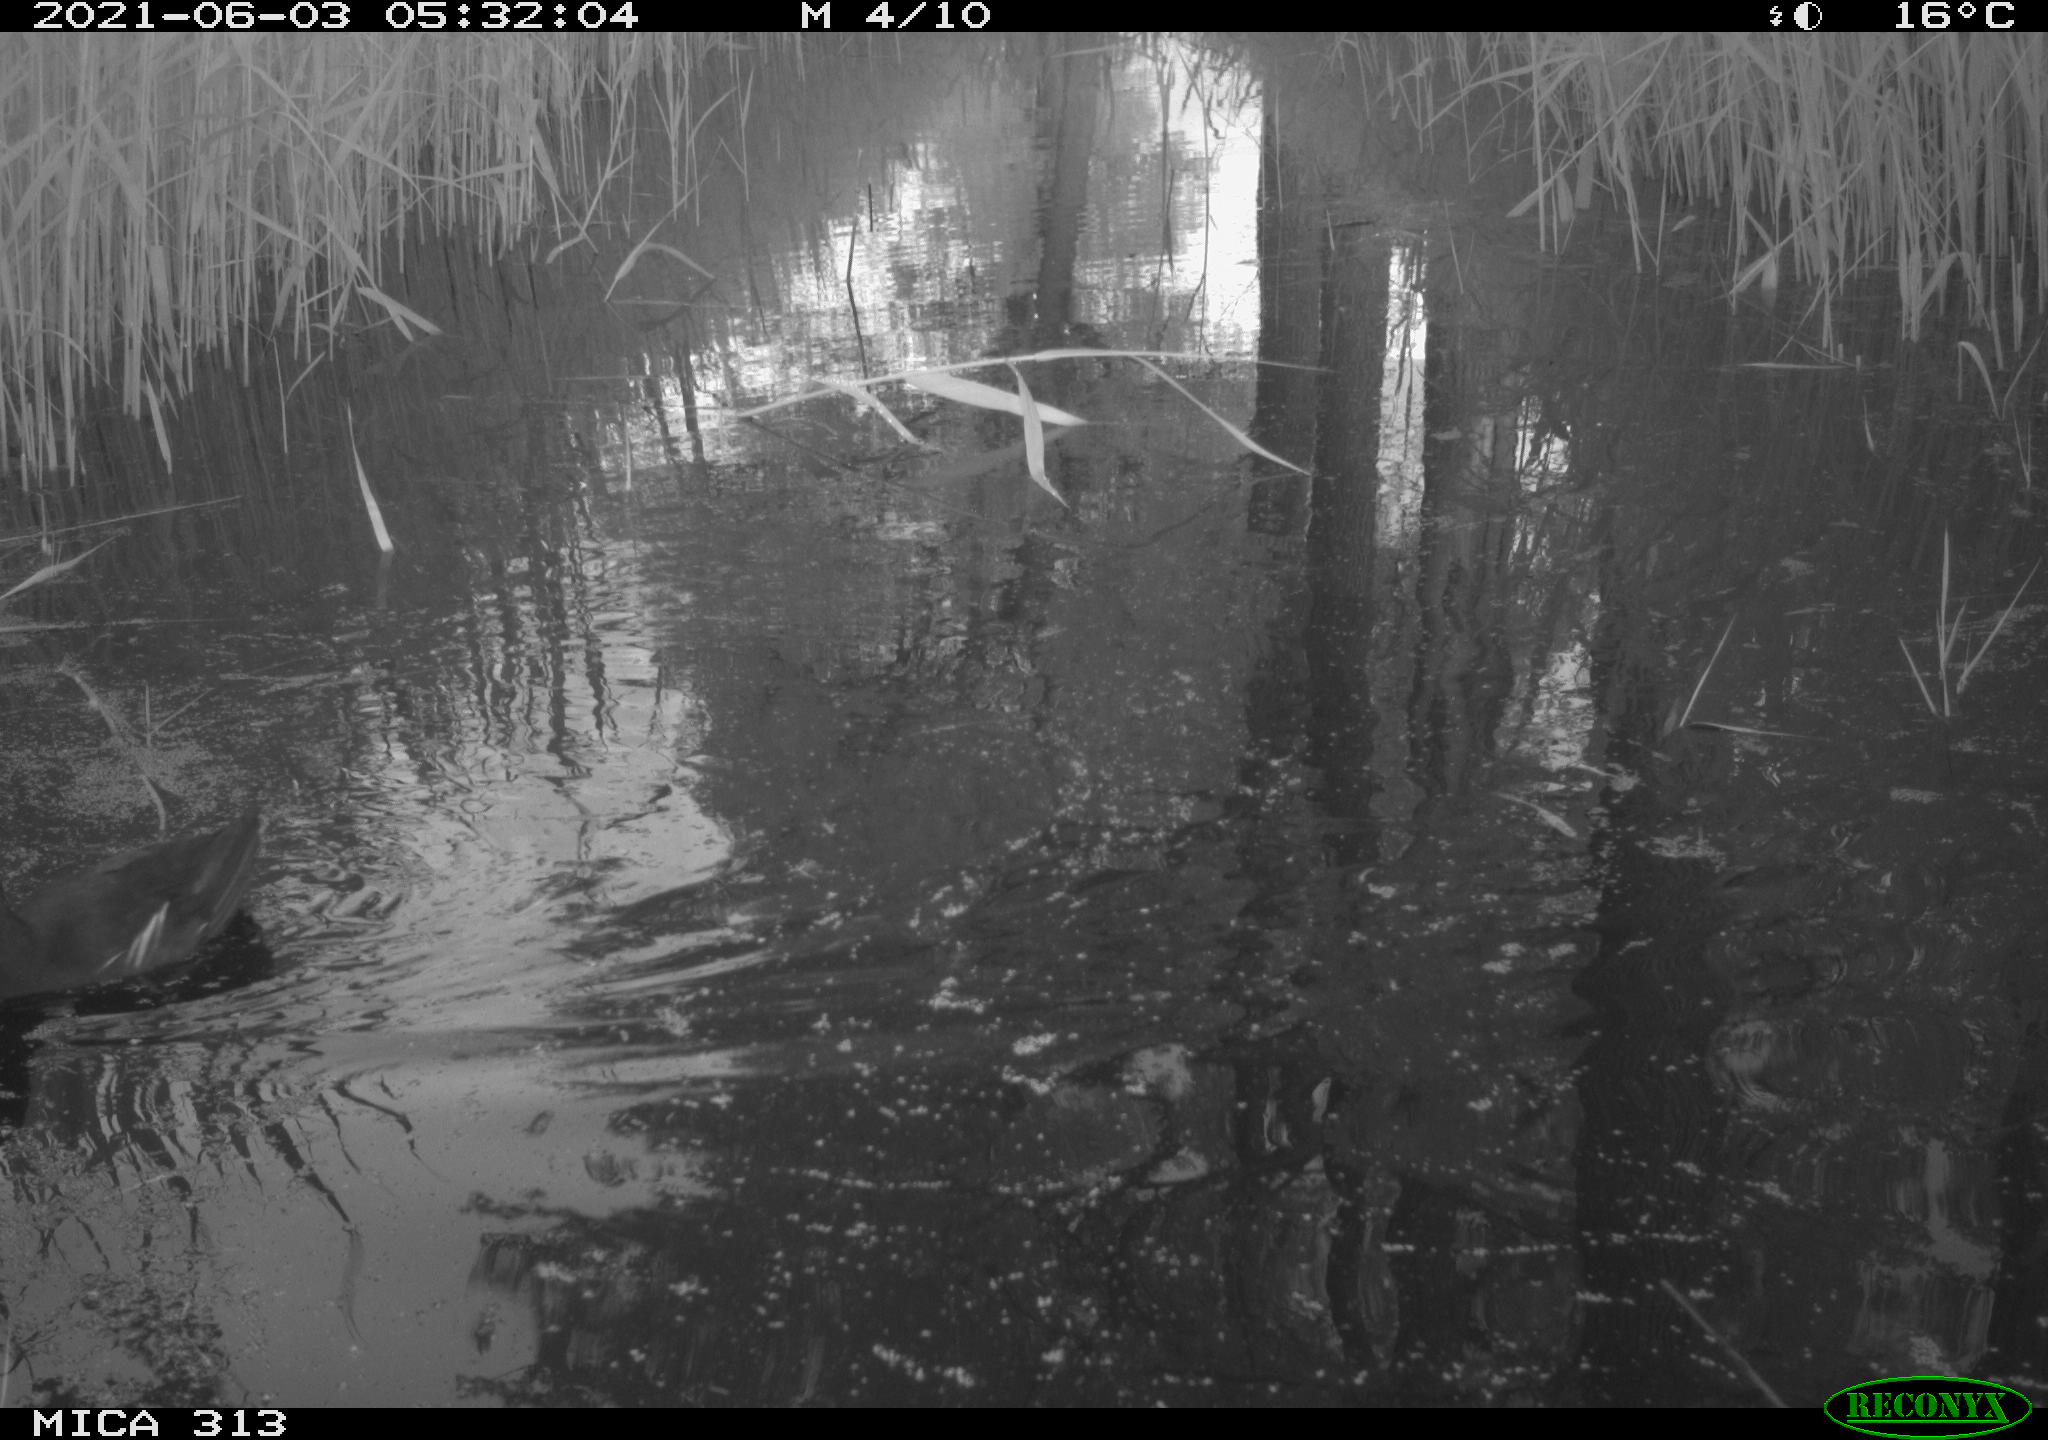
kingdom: Animalia
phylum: Chordata
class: Aves
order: Gruiformes
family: Rallidae
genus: Gallinula
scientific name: Gallinula chloropus
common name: Common moorhen
